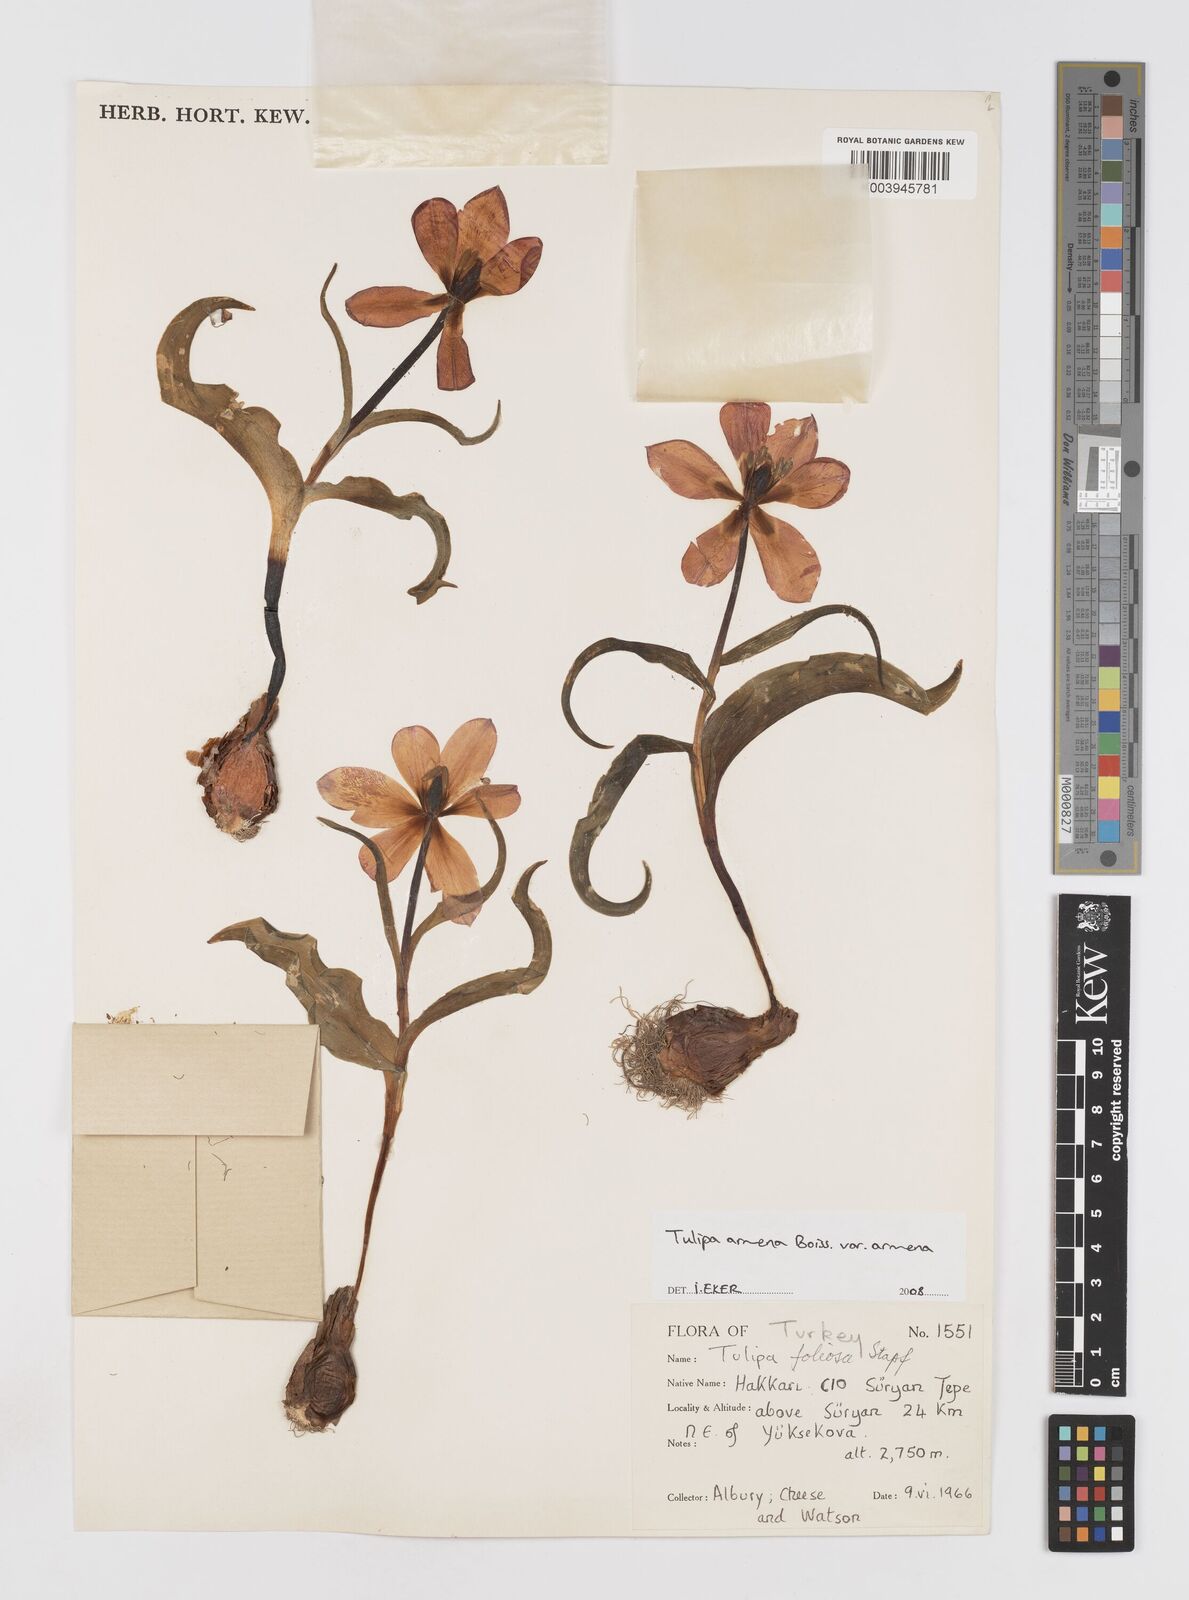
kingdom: Plantae
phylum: Tracheophyta
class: Liliopsida
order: Liliales
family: Liliaceae
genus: Tulipa
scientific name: Tulipa foliosa
